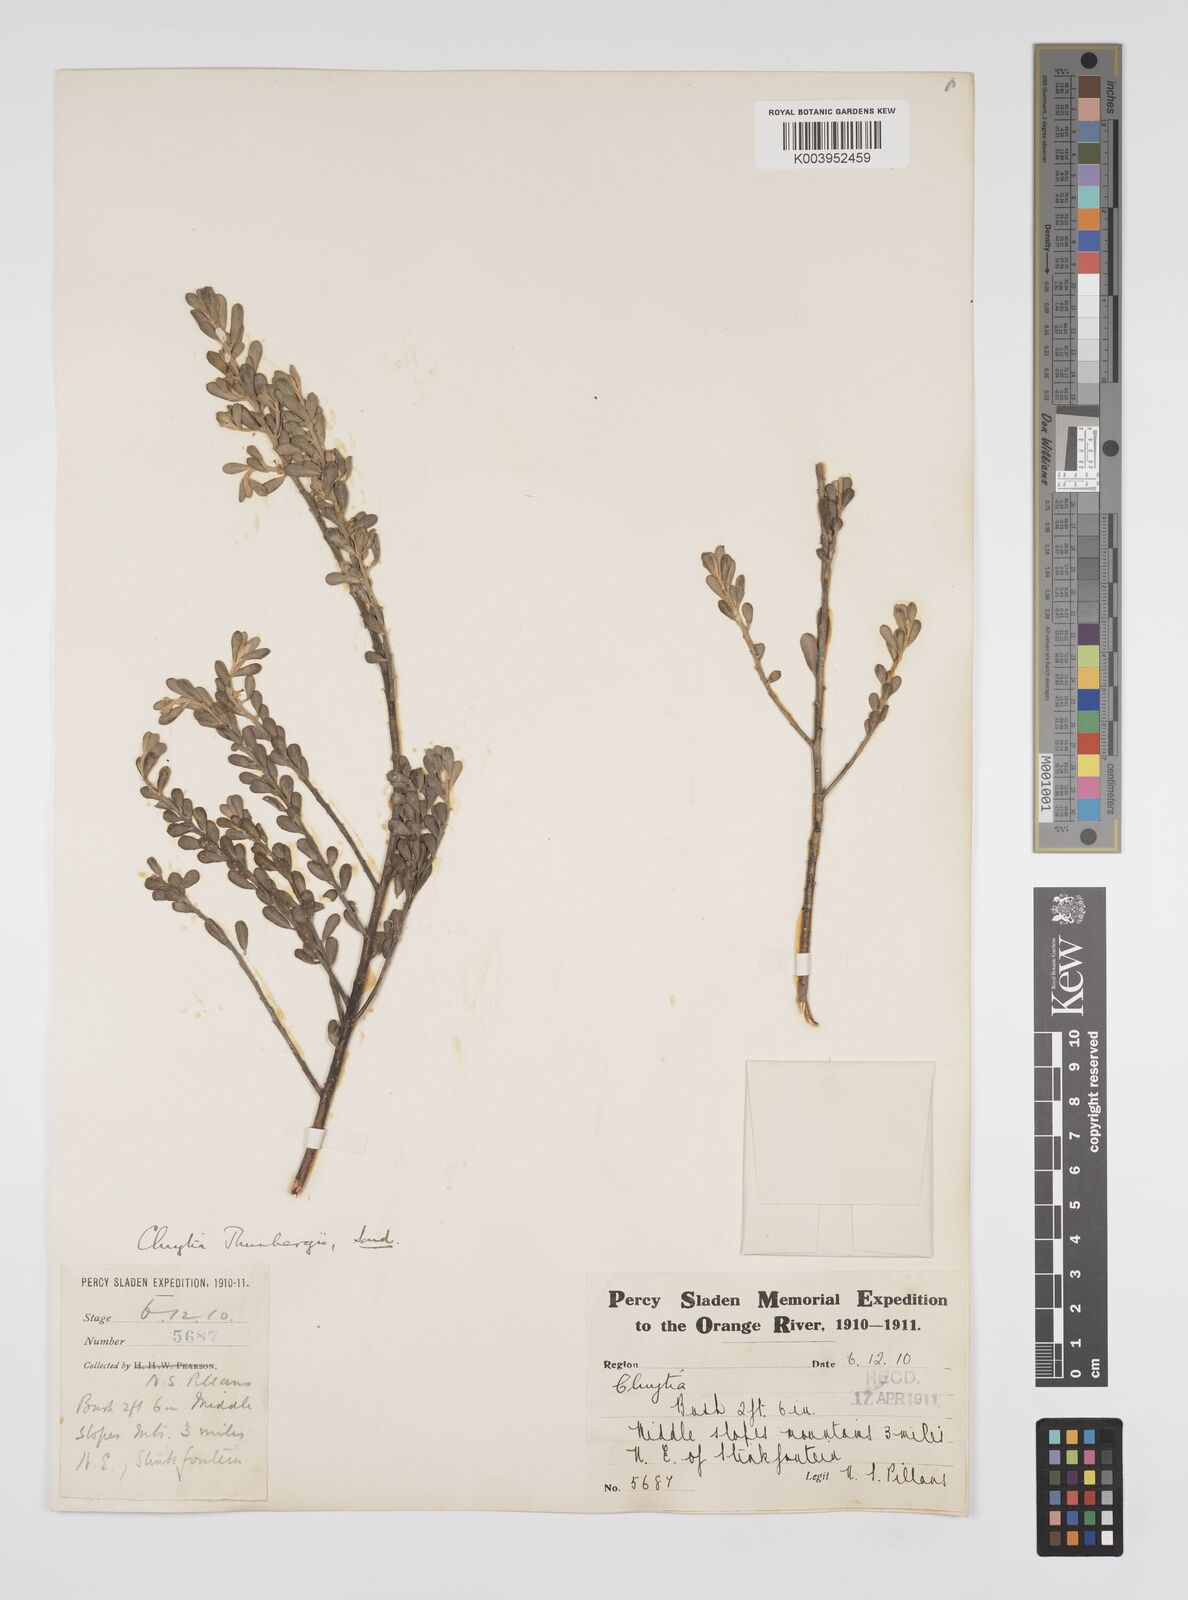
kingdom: Plantae
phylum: Tracheophyta
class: Magnoliopsida
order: Malpighiales
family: Peraceae
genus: Clutia
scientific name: Clutia thunbergii
